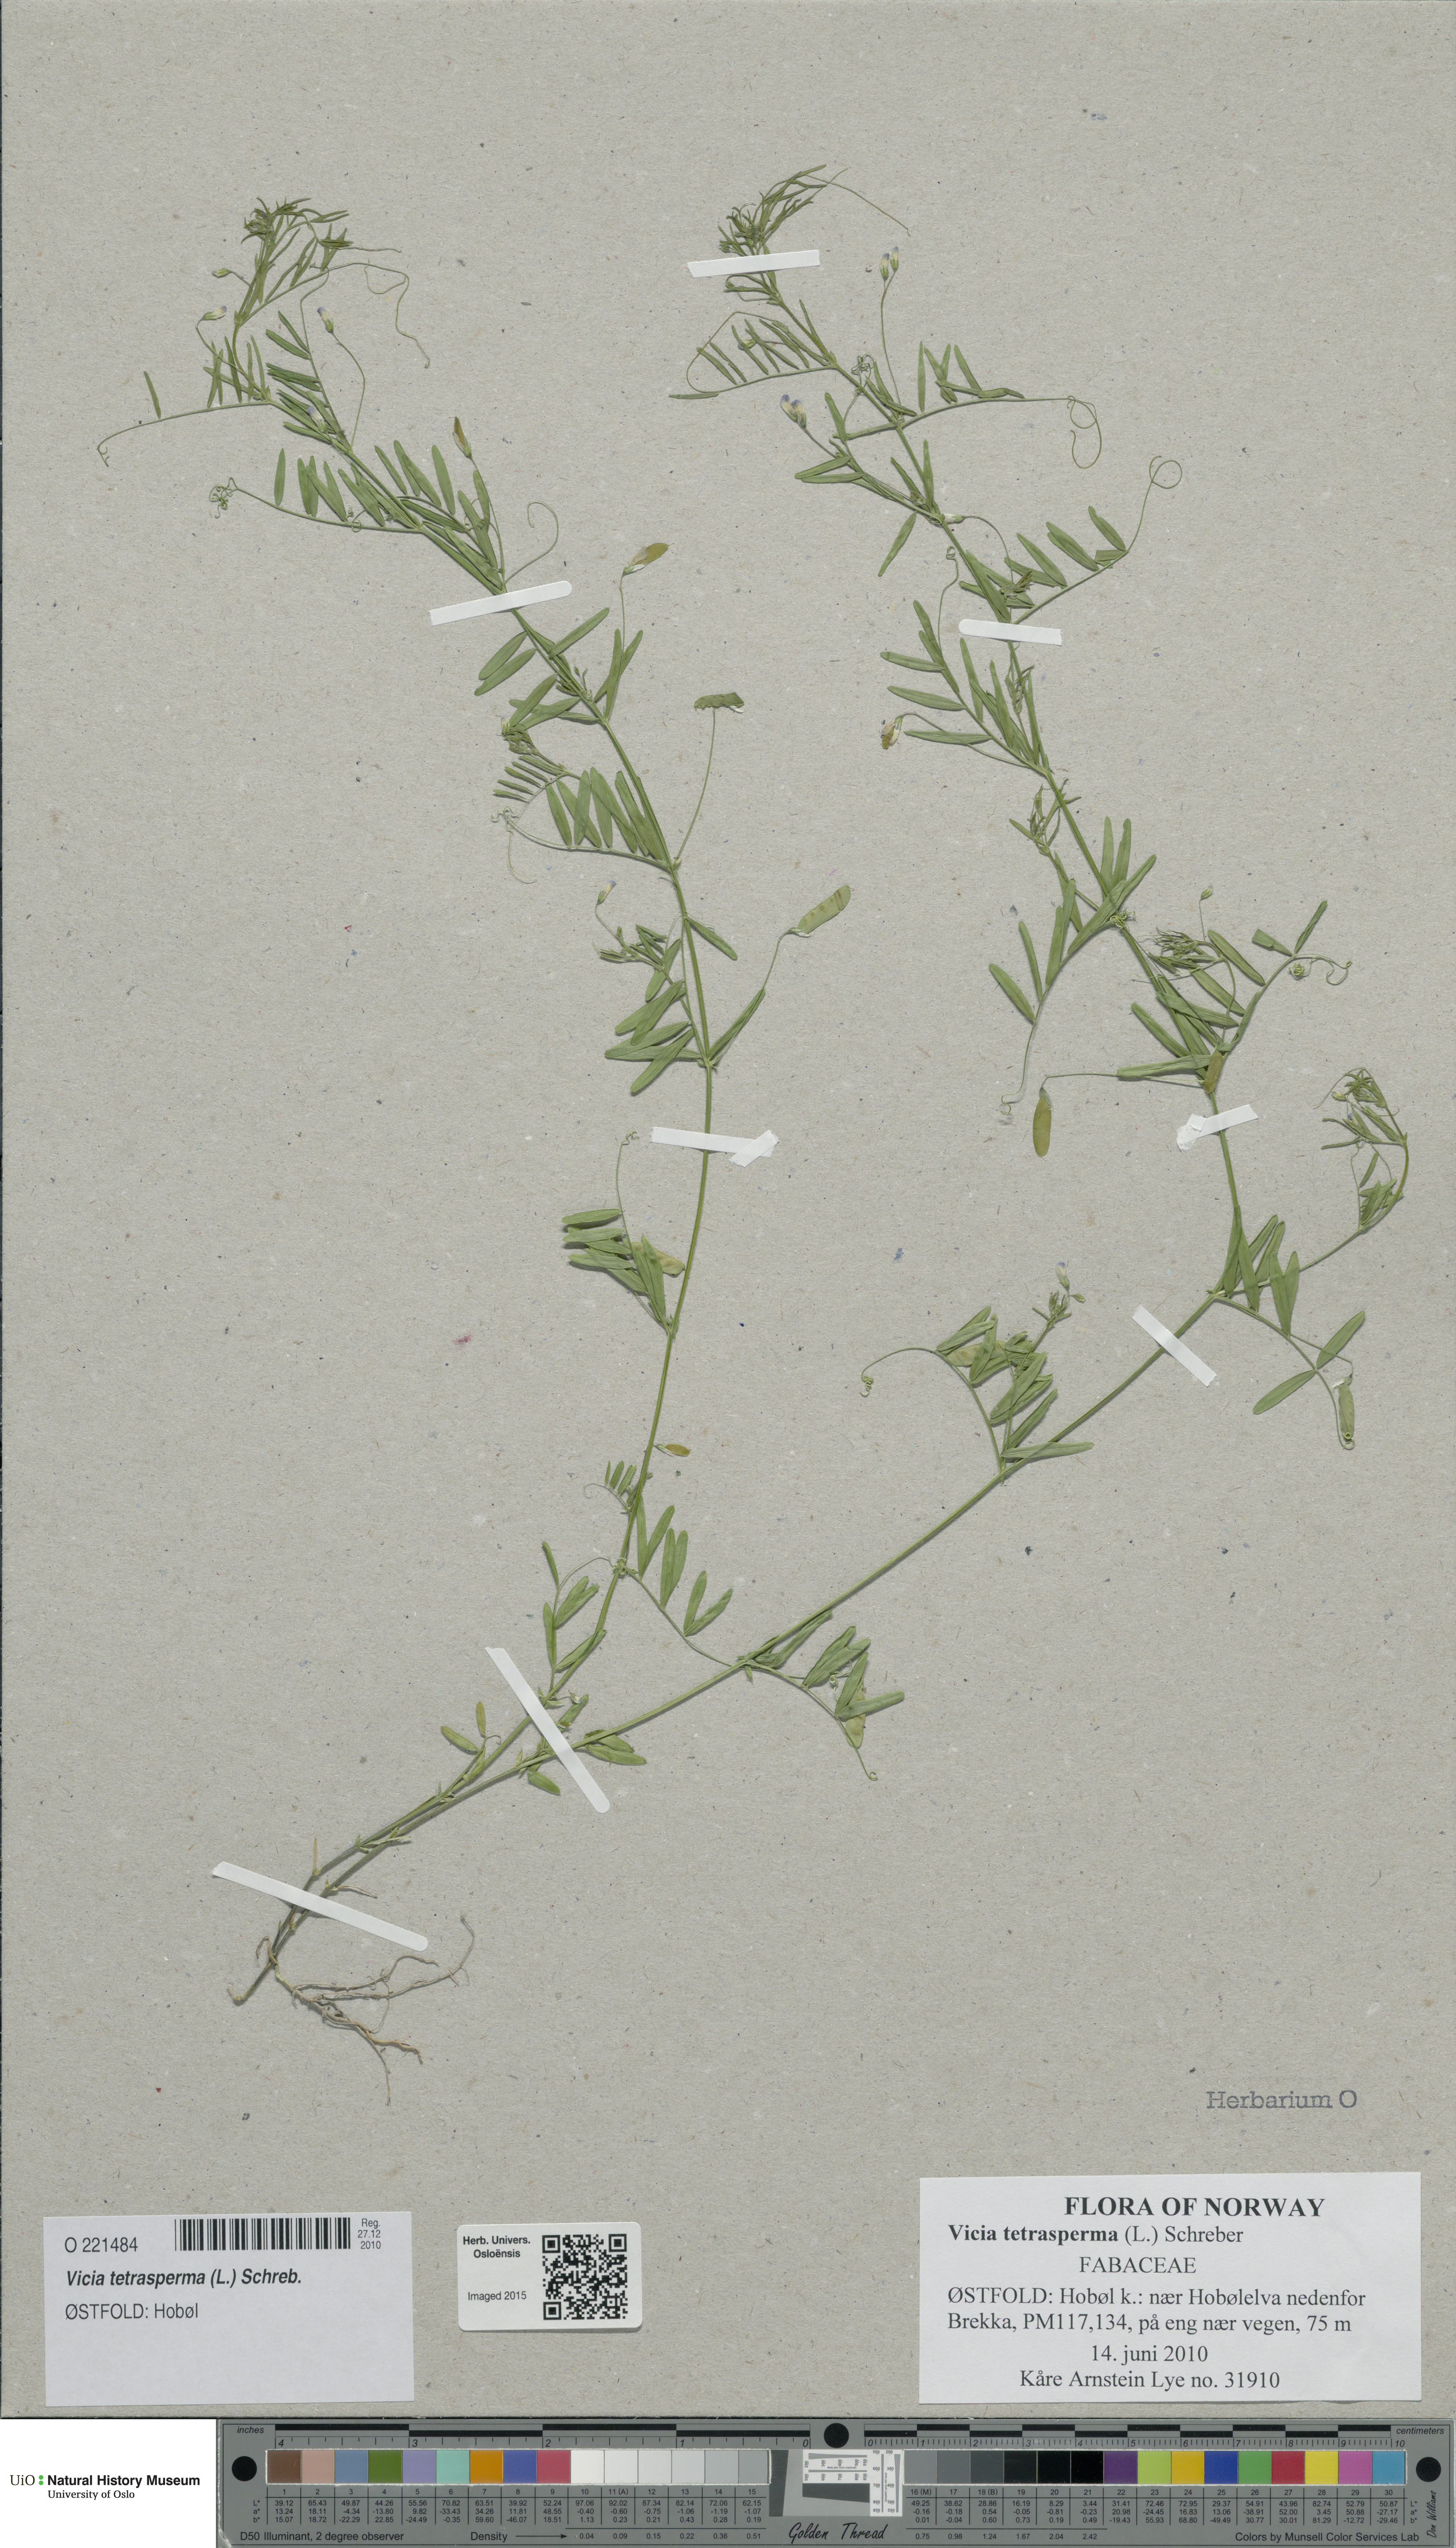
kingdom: Plantae
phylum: Tracheophyta
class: Magnoliopsida
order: Fabales
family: Fabaceae
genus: Vicia
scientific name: Vicia tetrasperma
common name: Smooth tare
